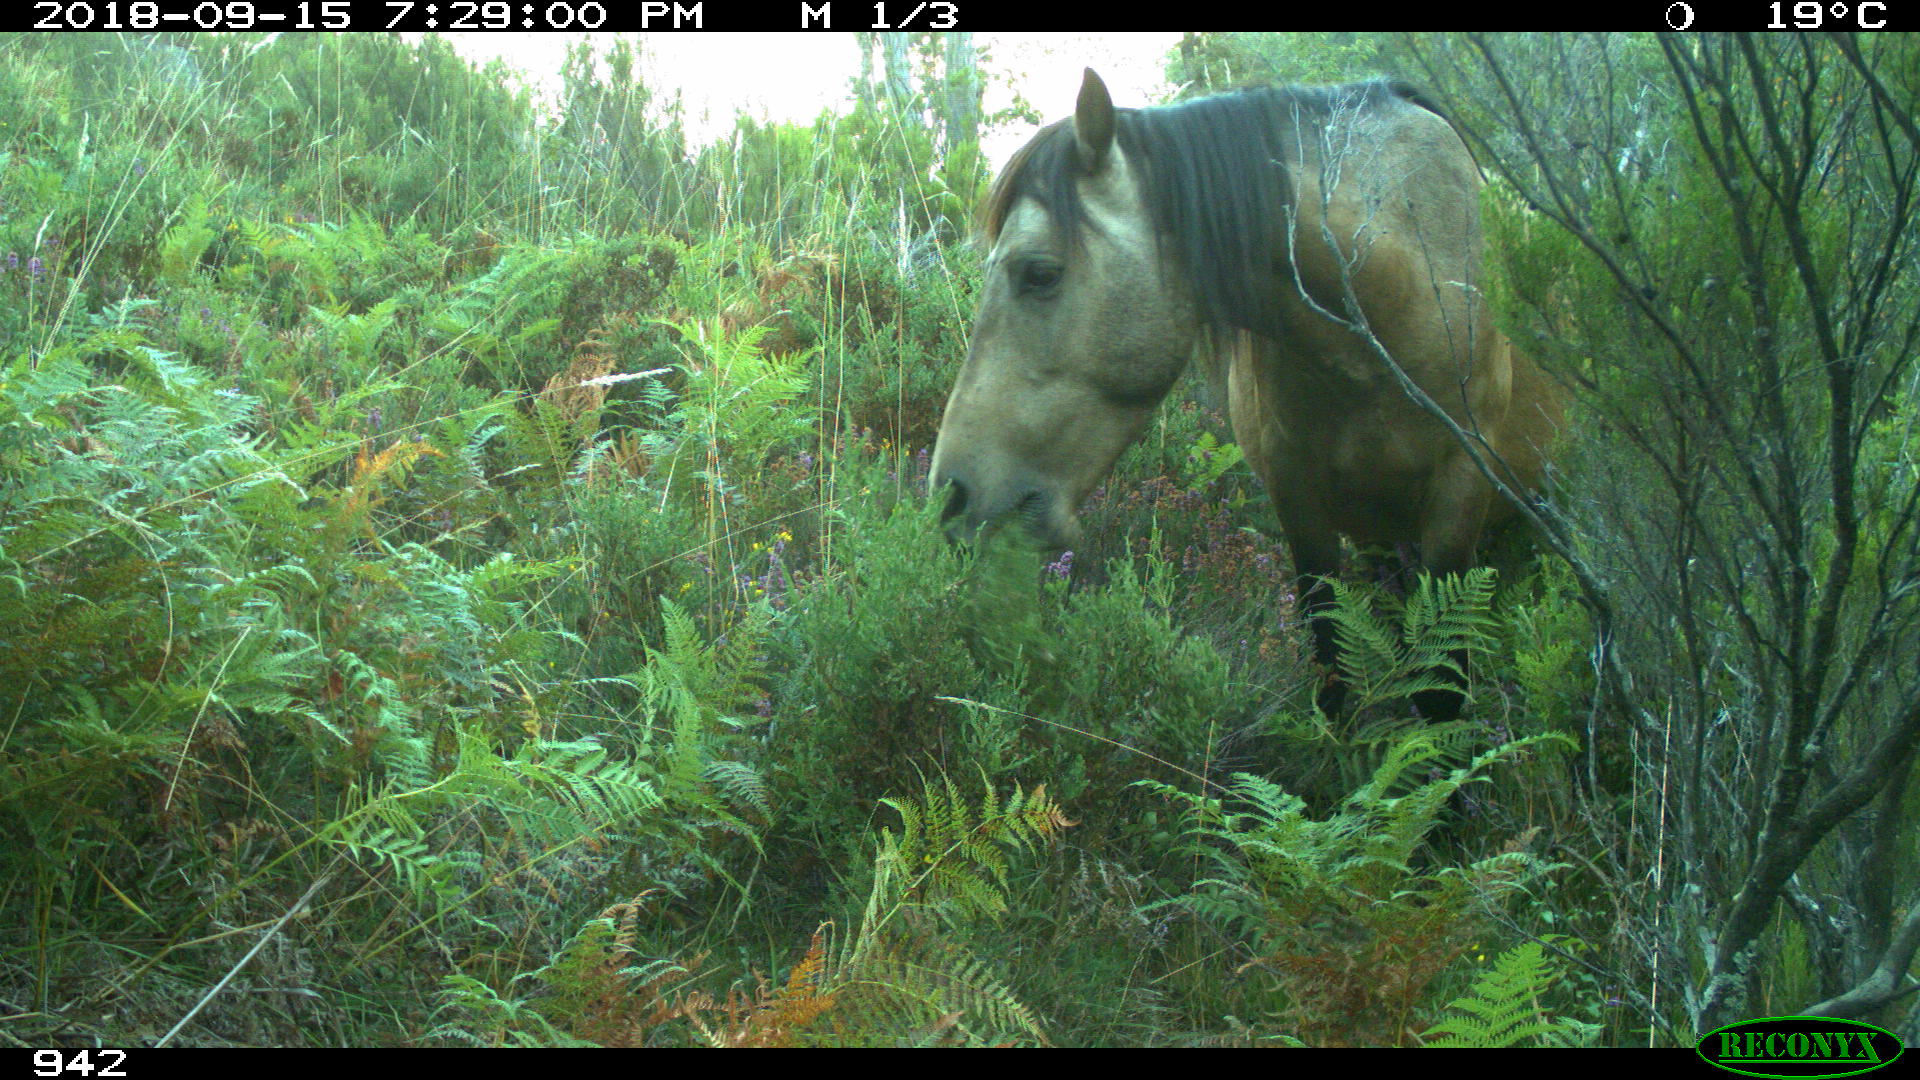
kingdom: Animalia
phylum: Chordata
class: Mammalia
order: Perissodactyla
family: Equidae
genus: Equus
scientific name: Equus caballus
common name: Horse
